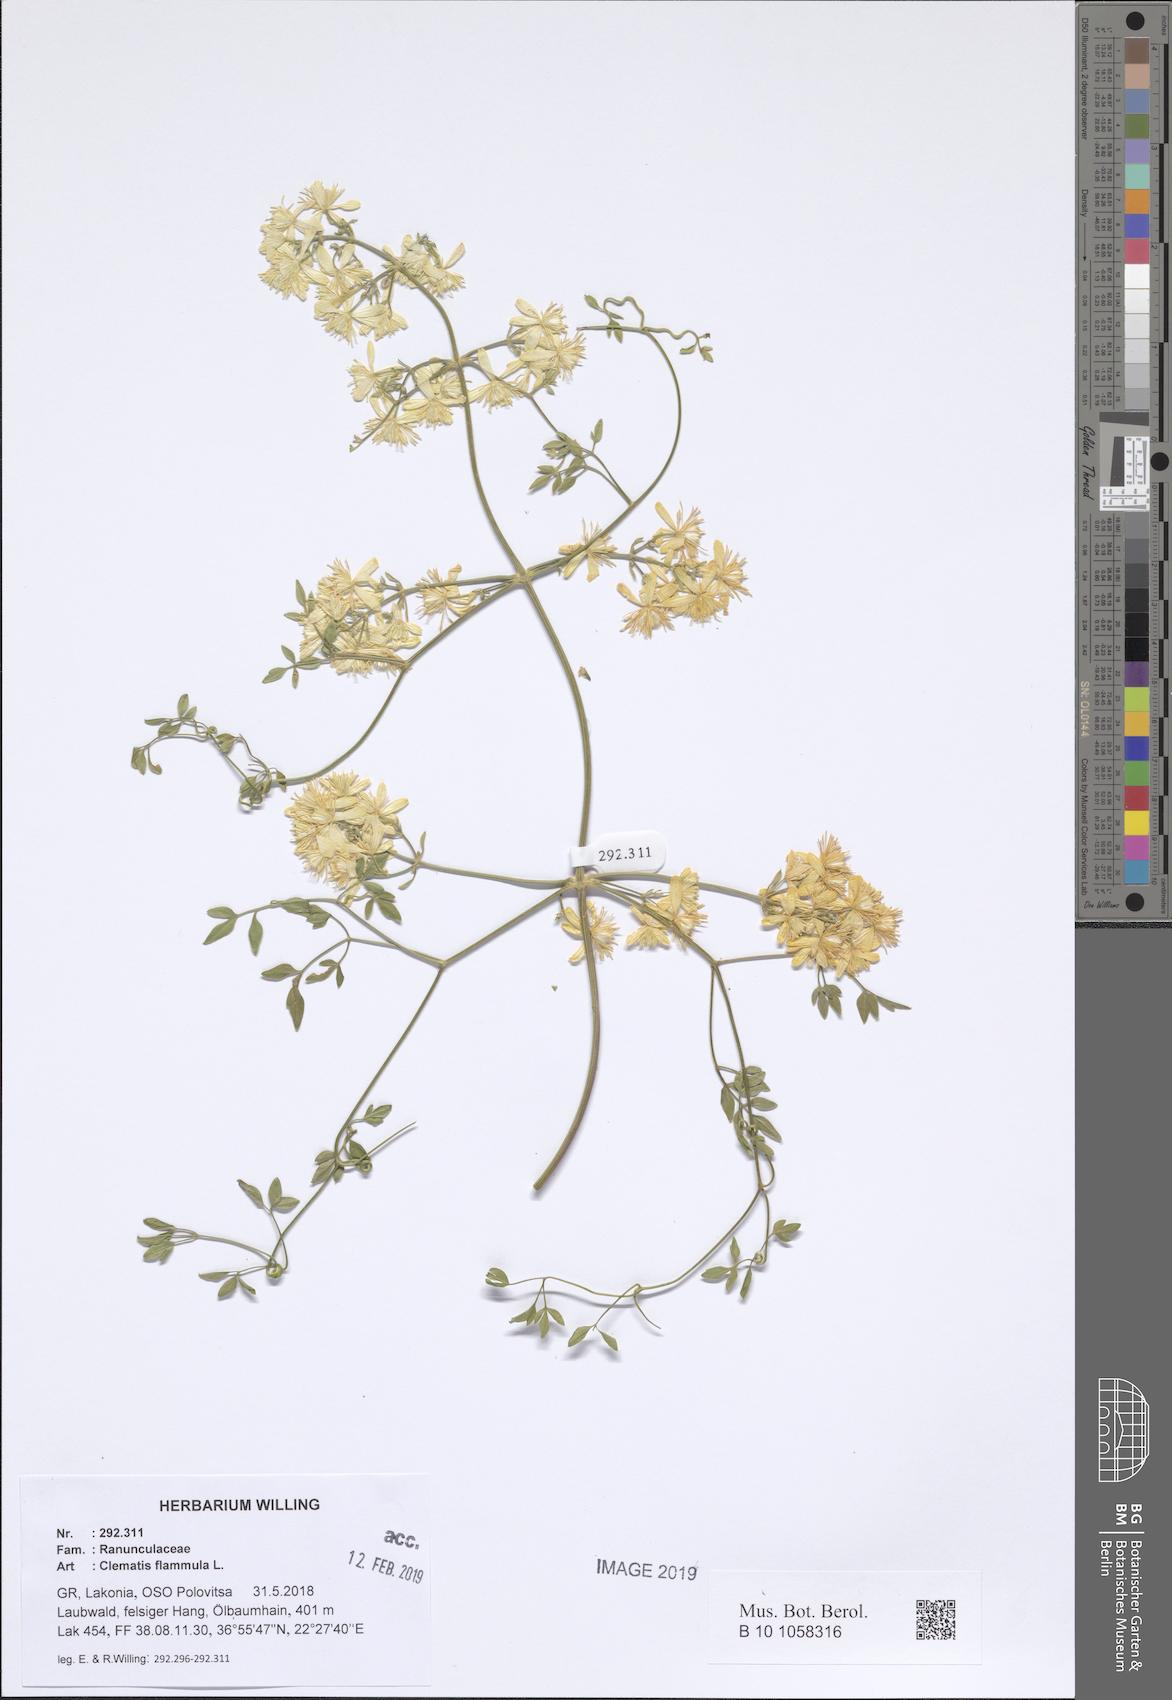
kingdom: Plantae
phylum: Tracheophyta
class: Magnoliopsida
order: Ranunculales
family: Ranunculaceae
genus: Clematis
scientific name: Clematis flammula
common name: Virgin's-bower
